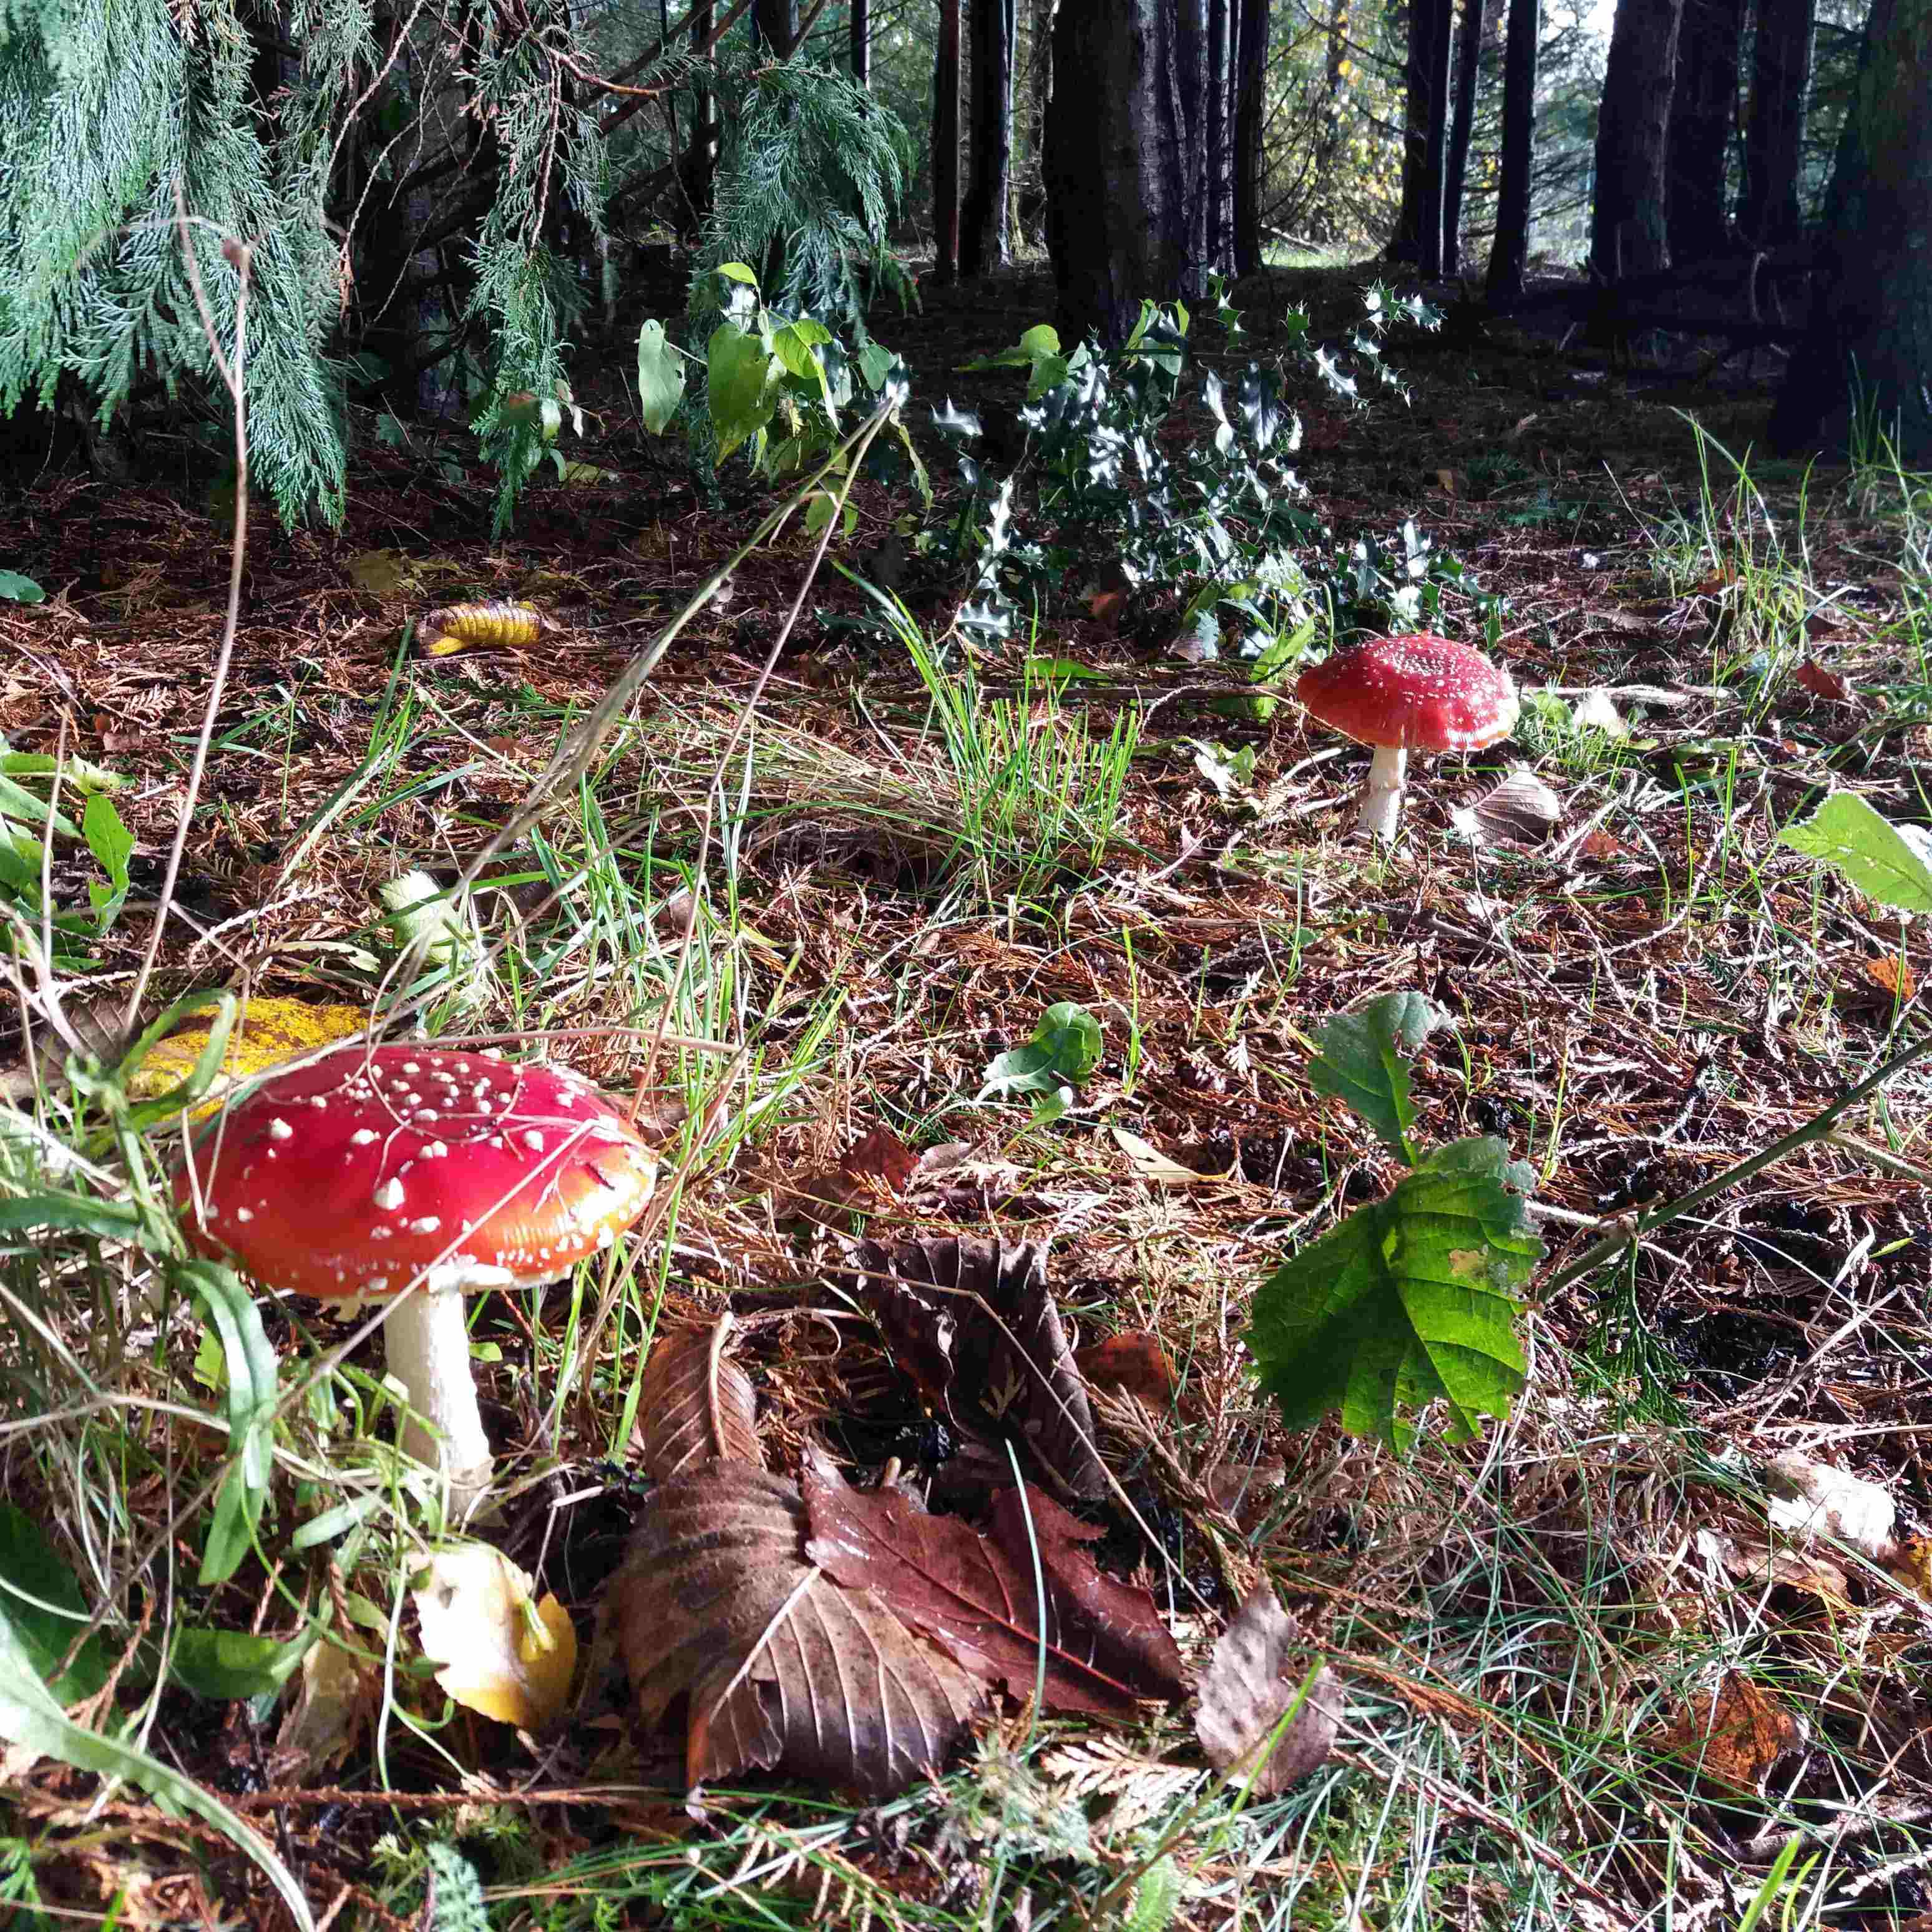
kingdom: Fungi
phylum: Basidiomycota
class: Agaricomycetes
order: Agaricales
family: Amanitaceae
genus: Amanita
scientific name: Amanita muscaria
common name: rød fluesvamp
